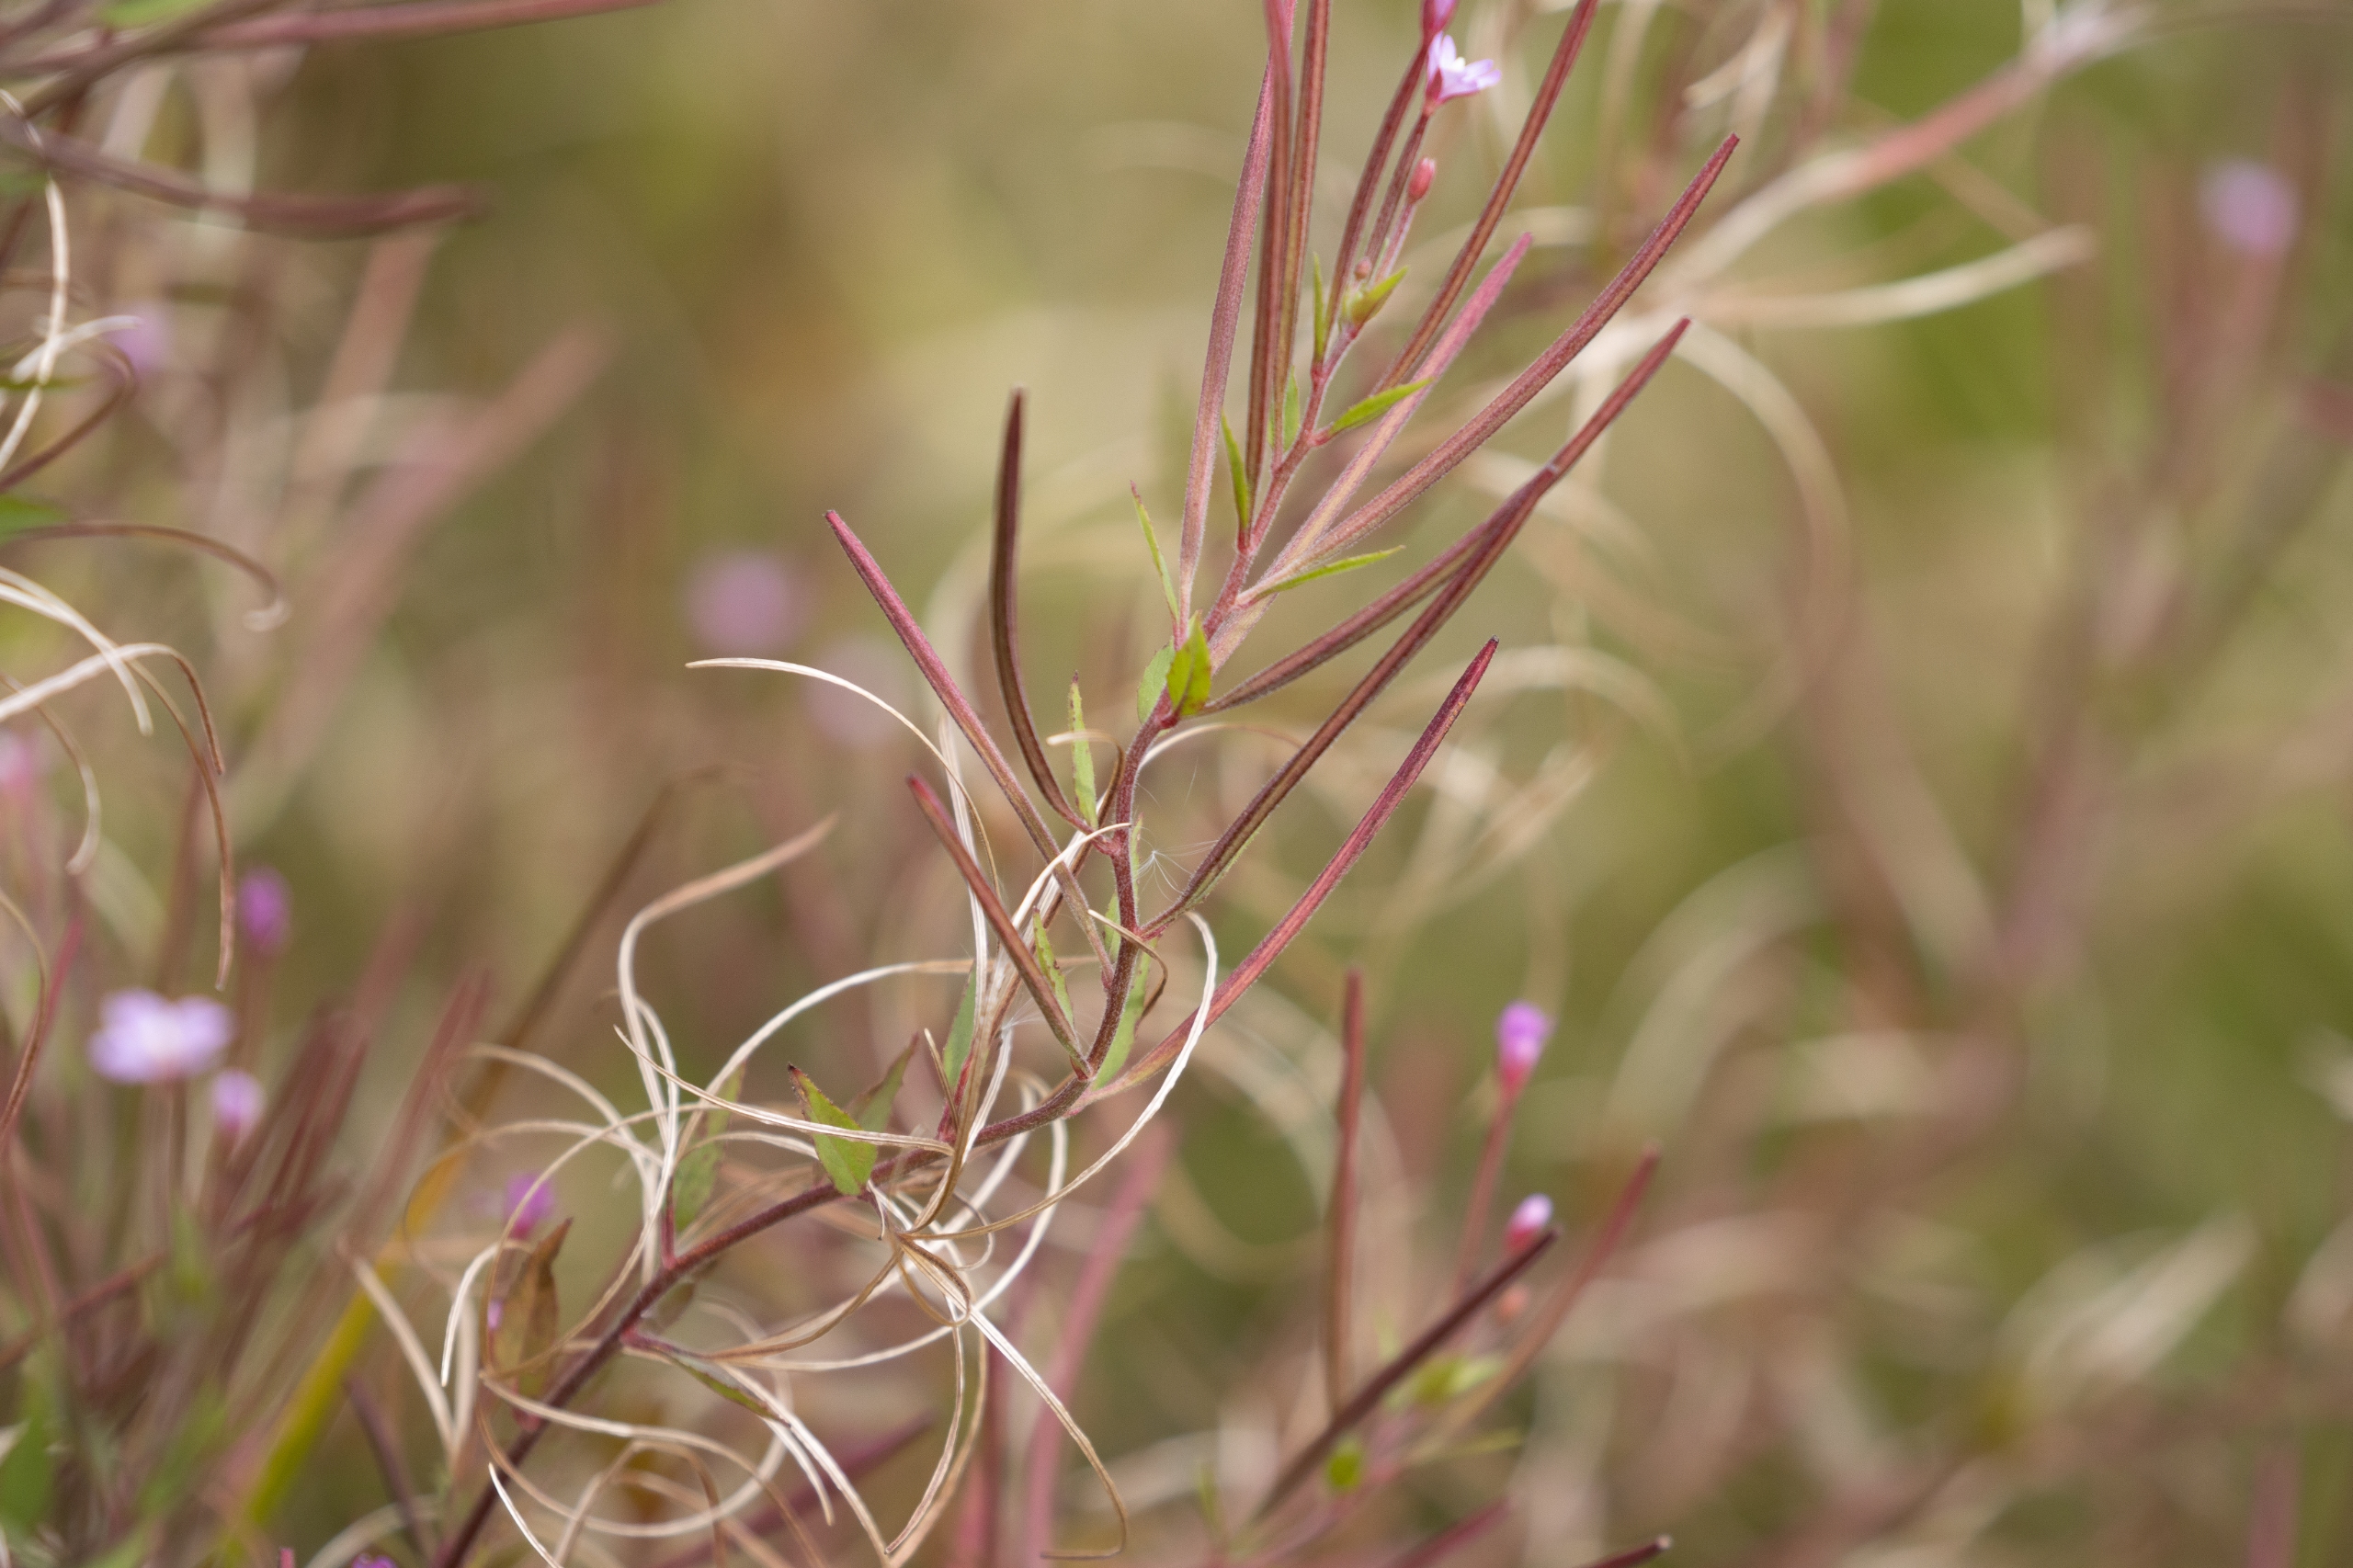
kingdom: Plantae
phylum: Tracheophyta
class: Magnoliopsida
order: Myrtales
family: Onagraceae
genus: Epilobium
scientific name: Epilobium ciliatum
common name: Kirtlet dueurt
